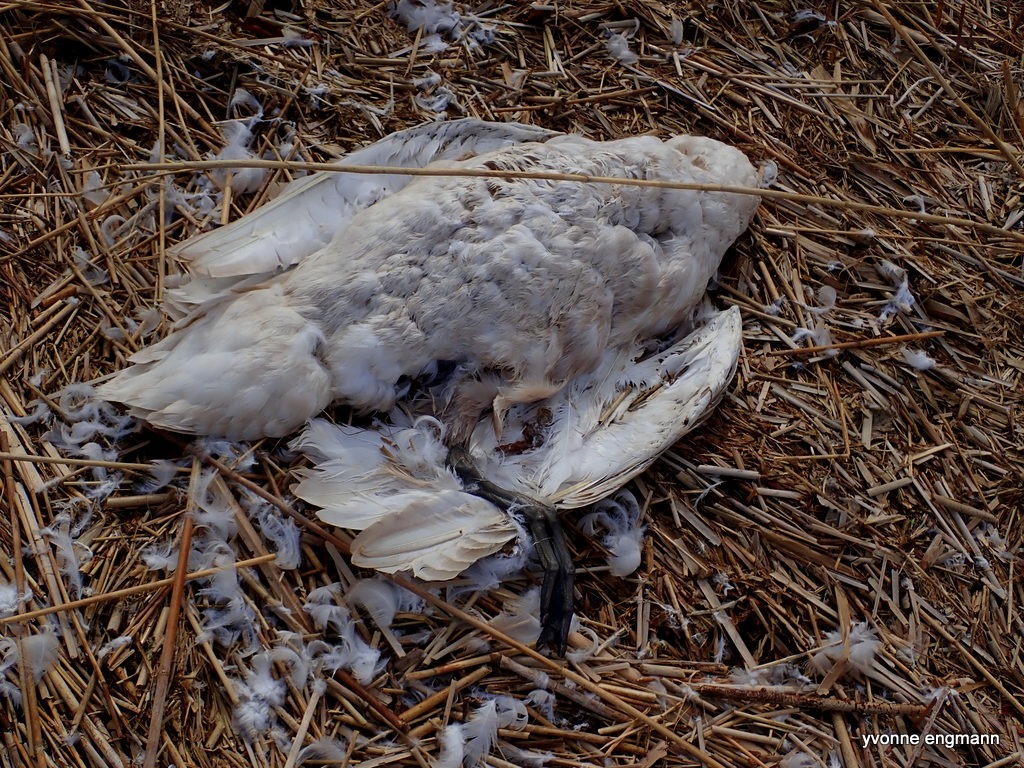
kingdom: Animalia
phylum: Chordata
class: Aves
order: Anseriformes
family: Anatidae
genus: Cygnus
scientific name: Cygnus olor
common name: Knopsvane
